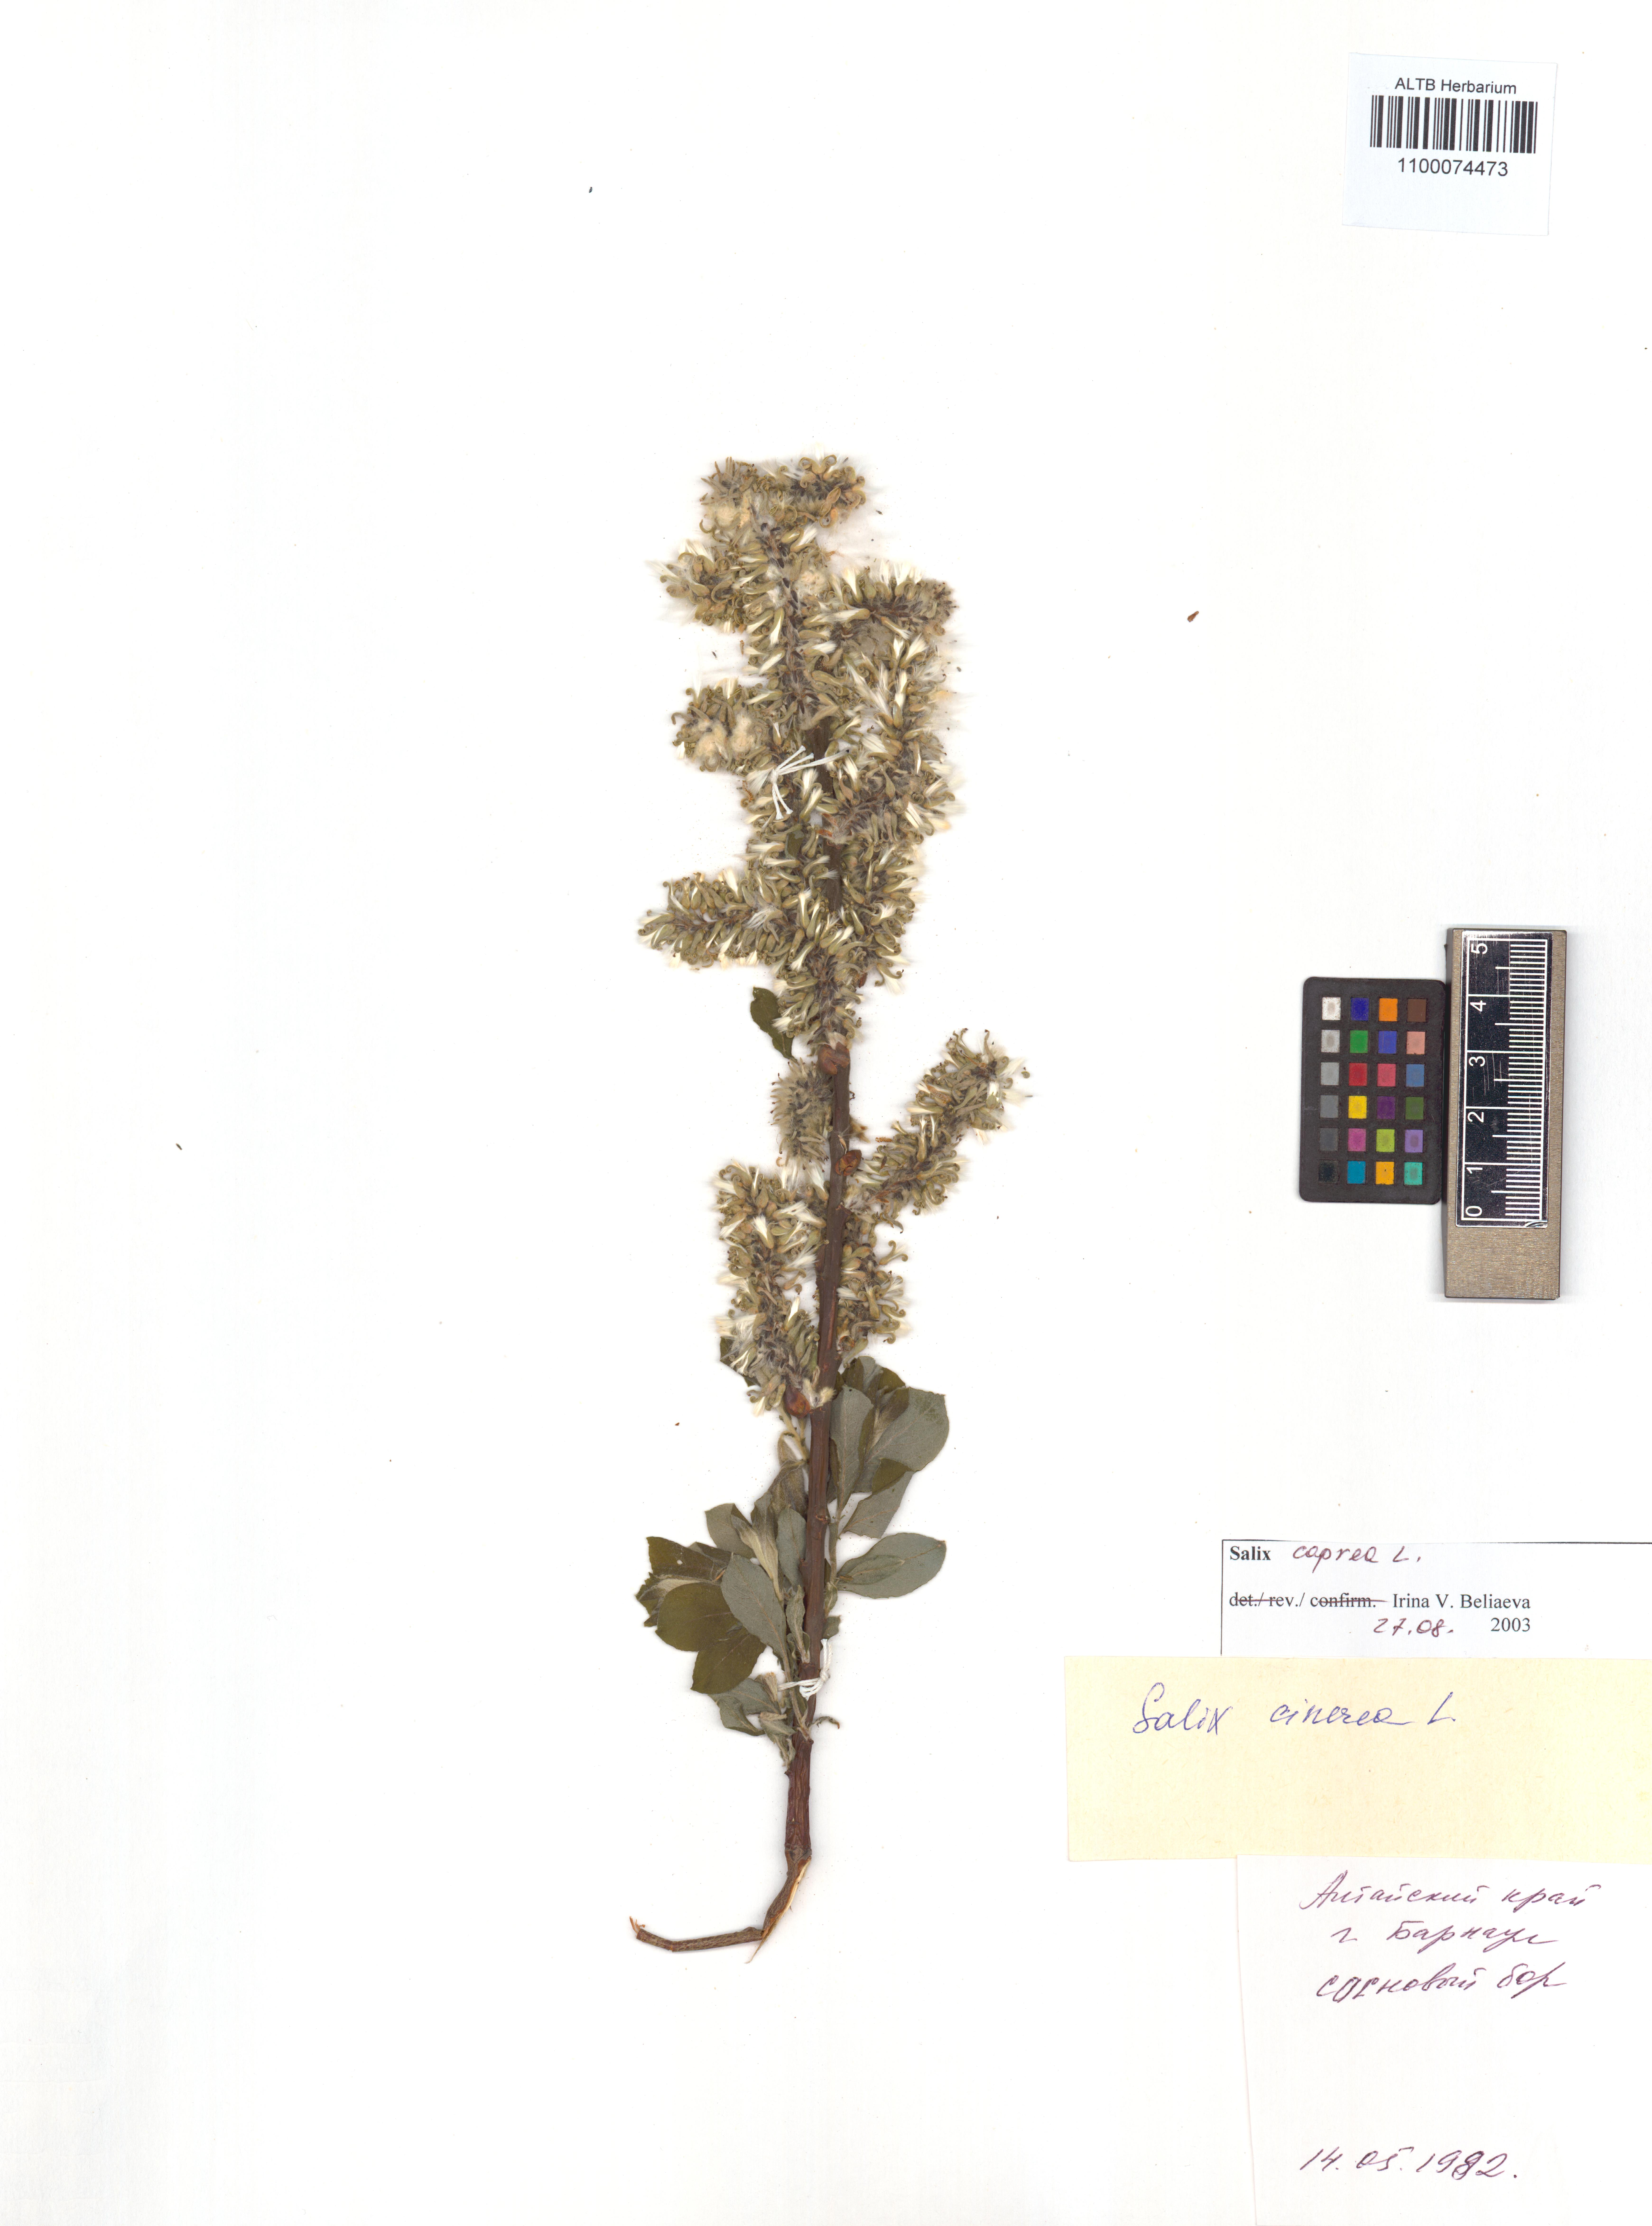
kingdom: Plantae
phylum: Tracheophyta
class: Magnoliopsida
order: Malpighiales
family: Salicaceae
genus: Salix
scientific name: Salix caprea
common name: Goat willow
